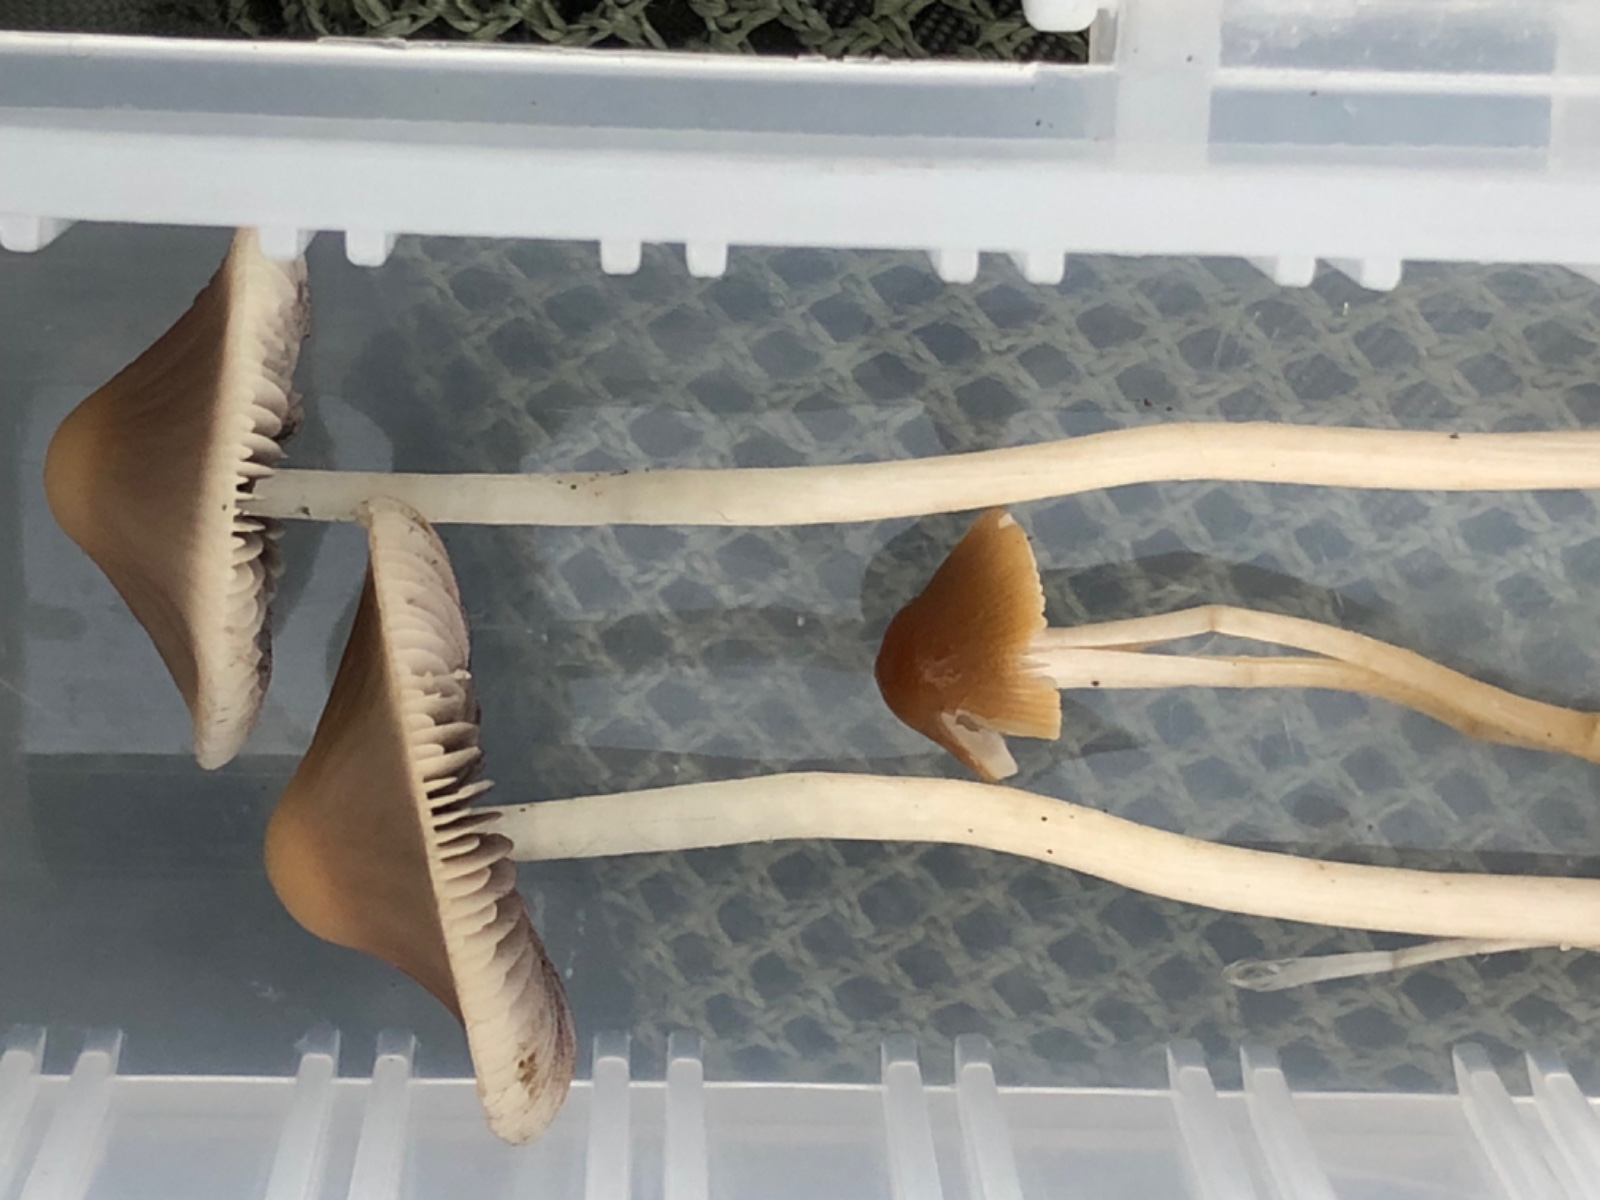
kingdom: Fungi
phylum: Basidiomycota
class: Agaricomycetes
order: Agaricales
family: Psathyrellaceae
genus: Psathyrella
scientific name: Psathyrella
